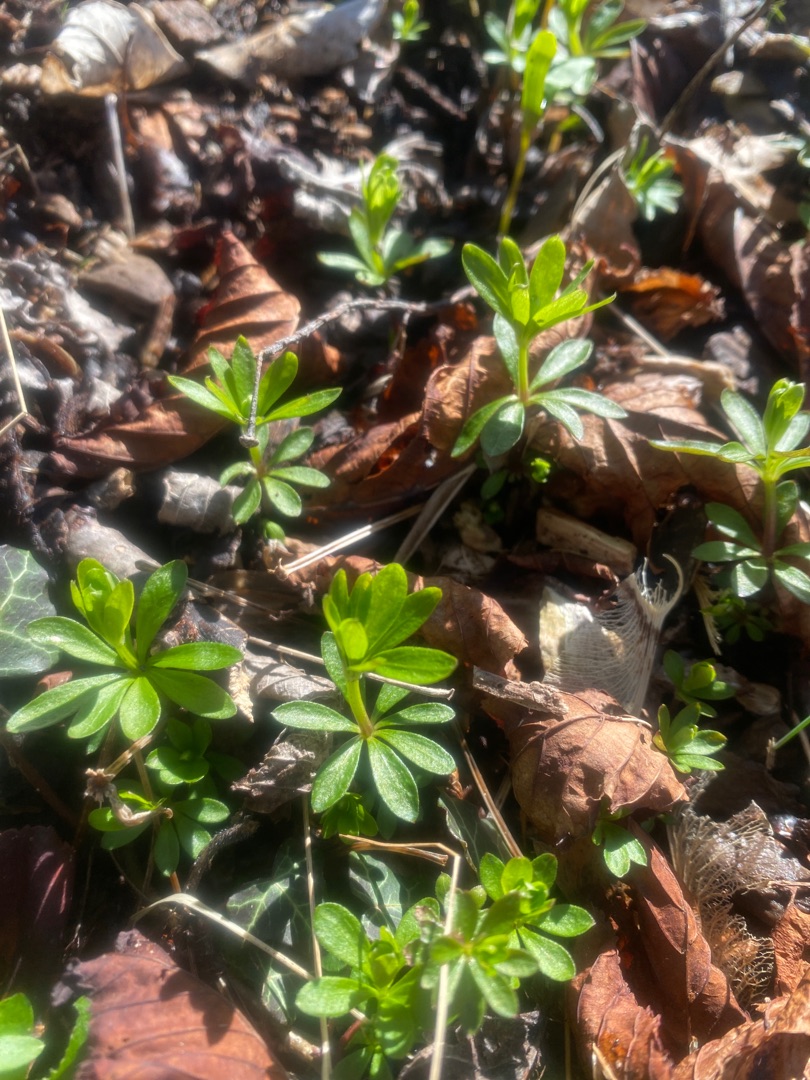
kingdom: Plantae
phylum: Tracheophyta
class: Magnoliopsida
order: Gentianales
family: Rubiaceae
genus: Galium
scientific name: Galium odoratum
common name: Skovmærke
